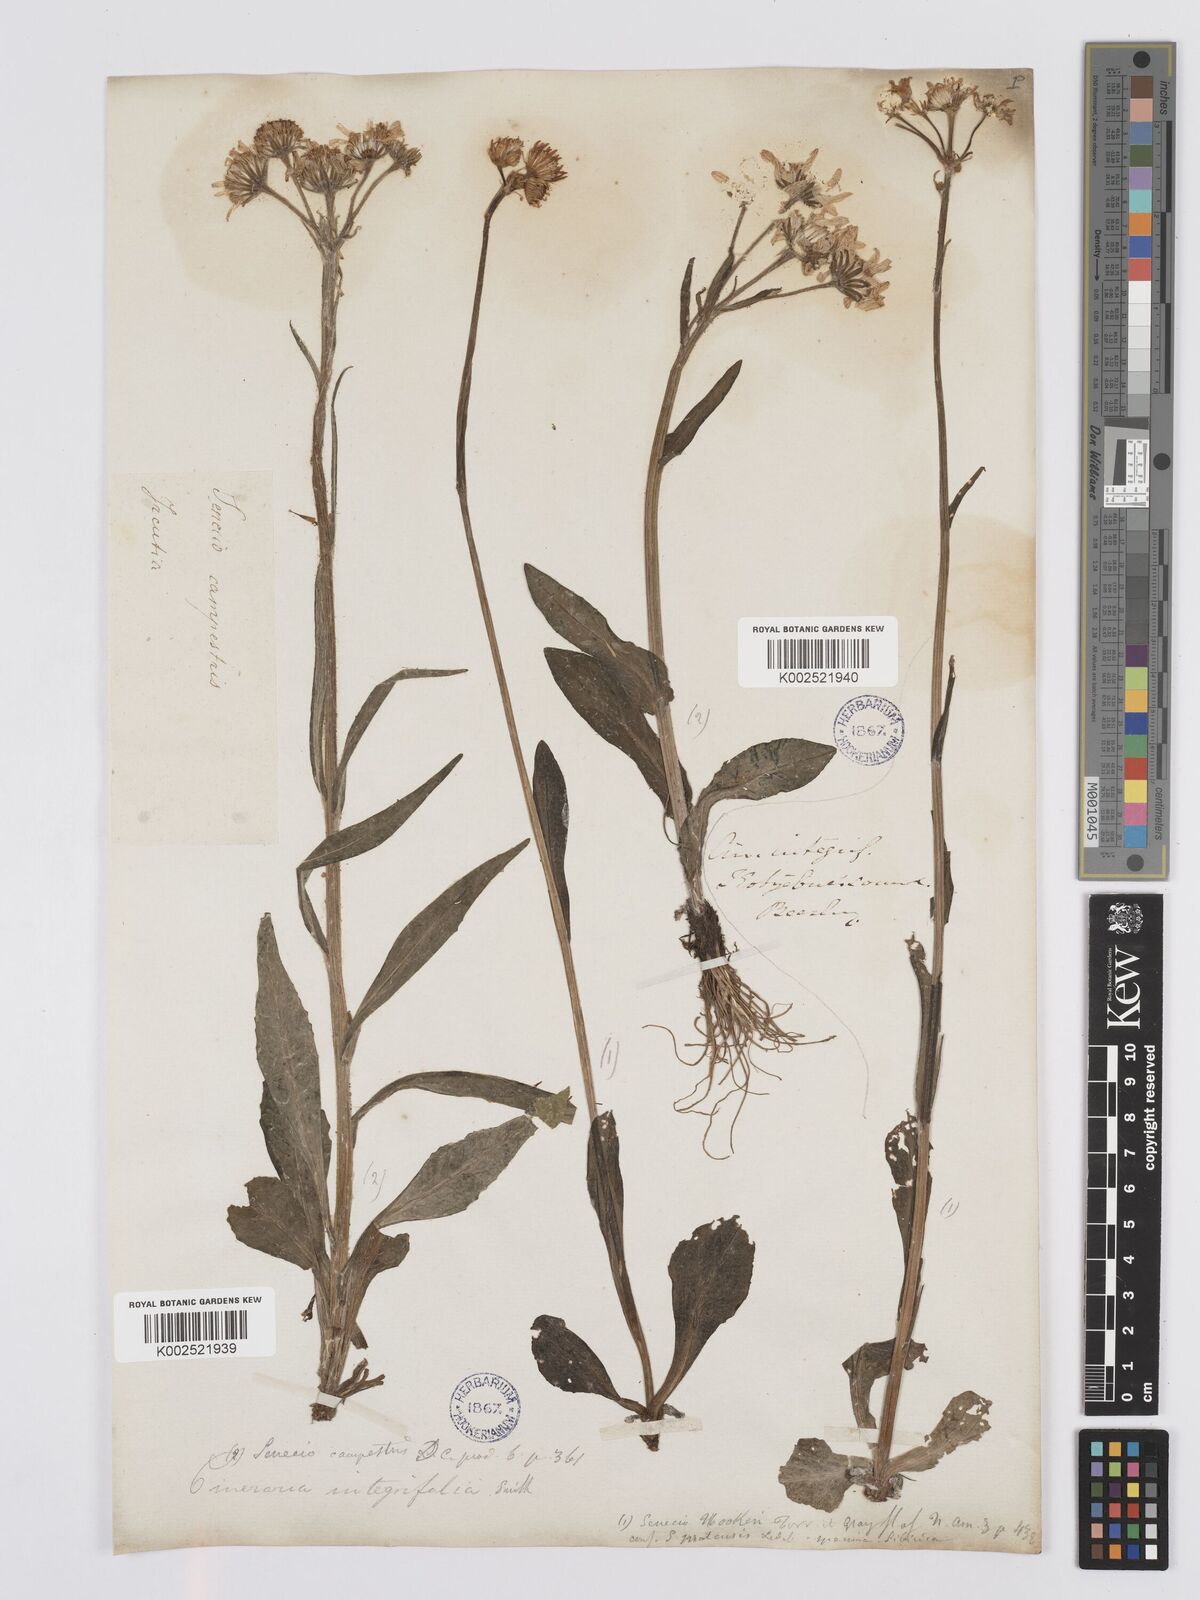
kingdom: Plantae
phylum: Tracheophyta
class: Magnoliopsida
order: Asterales
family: Asteraceae
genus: Tephroseris
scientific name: Tephroseris integrifolia
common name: Field fleawort
